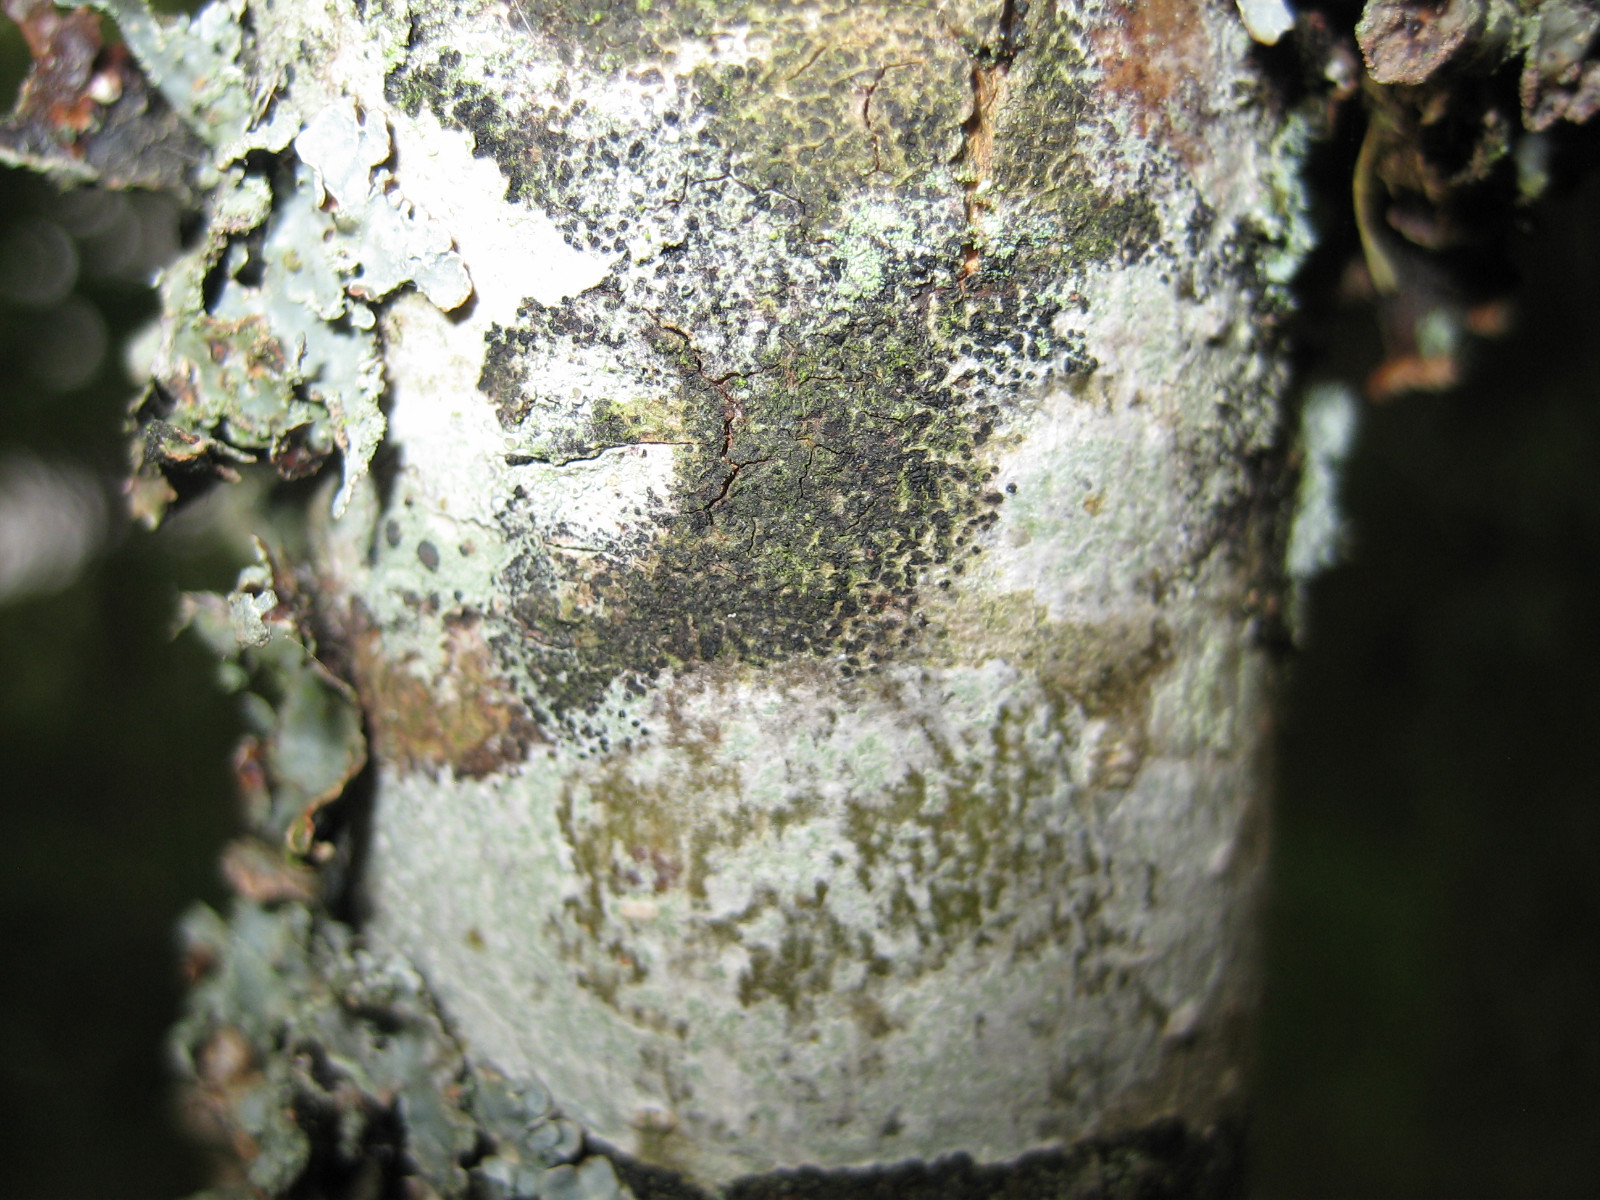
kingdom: Fungi
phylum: Ascomycota
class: Leotiomycetes
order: Rhytismatales
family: Ascodichaenaceae
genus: Ascodichaena
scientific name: Ascodichaena rugosa
